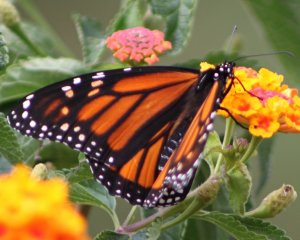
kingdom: Animalia
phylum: Arthropoda
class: Insecta
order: Lepidoptera
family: Nymphalidae
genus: Danaus
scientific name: Danaus plexippus
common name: Monarch
